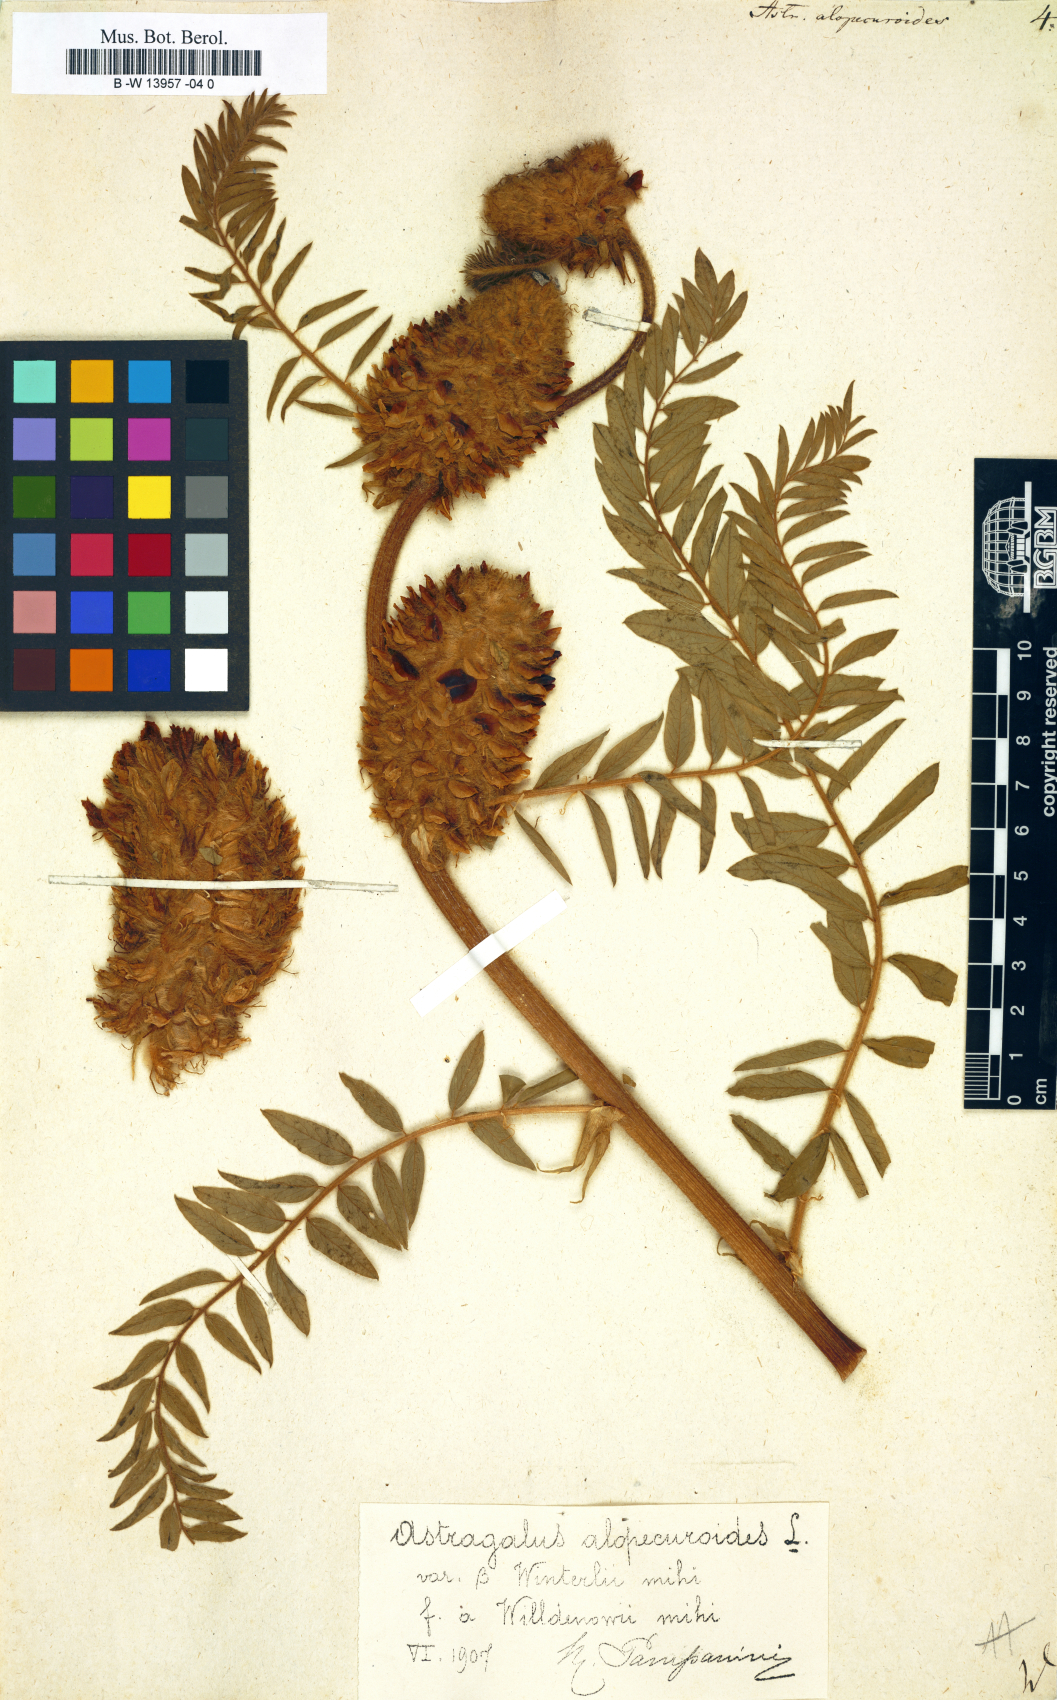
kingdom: Plantae
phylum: Tracheophyta
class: Magnoliopsida
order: Fabales
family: Fabaceae
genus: Astragalus
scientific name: Astragalus alopecuroides
